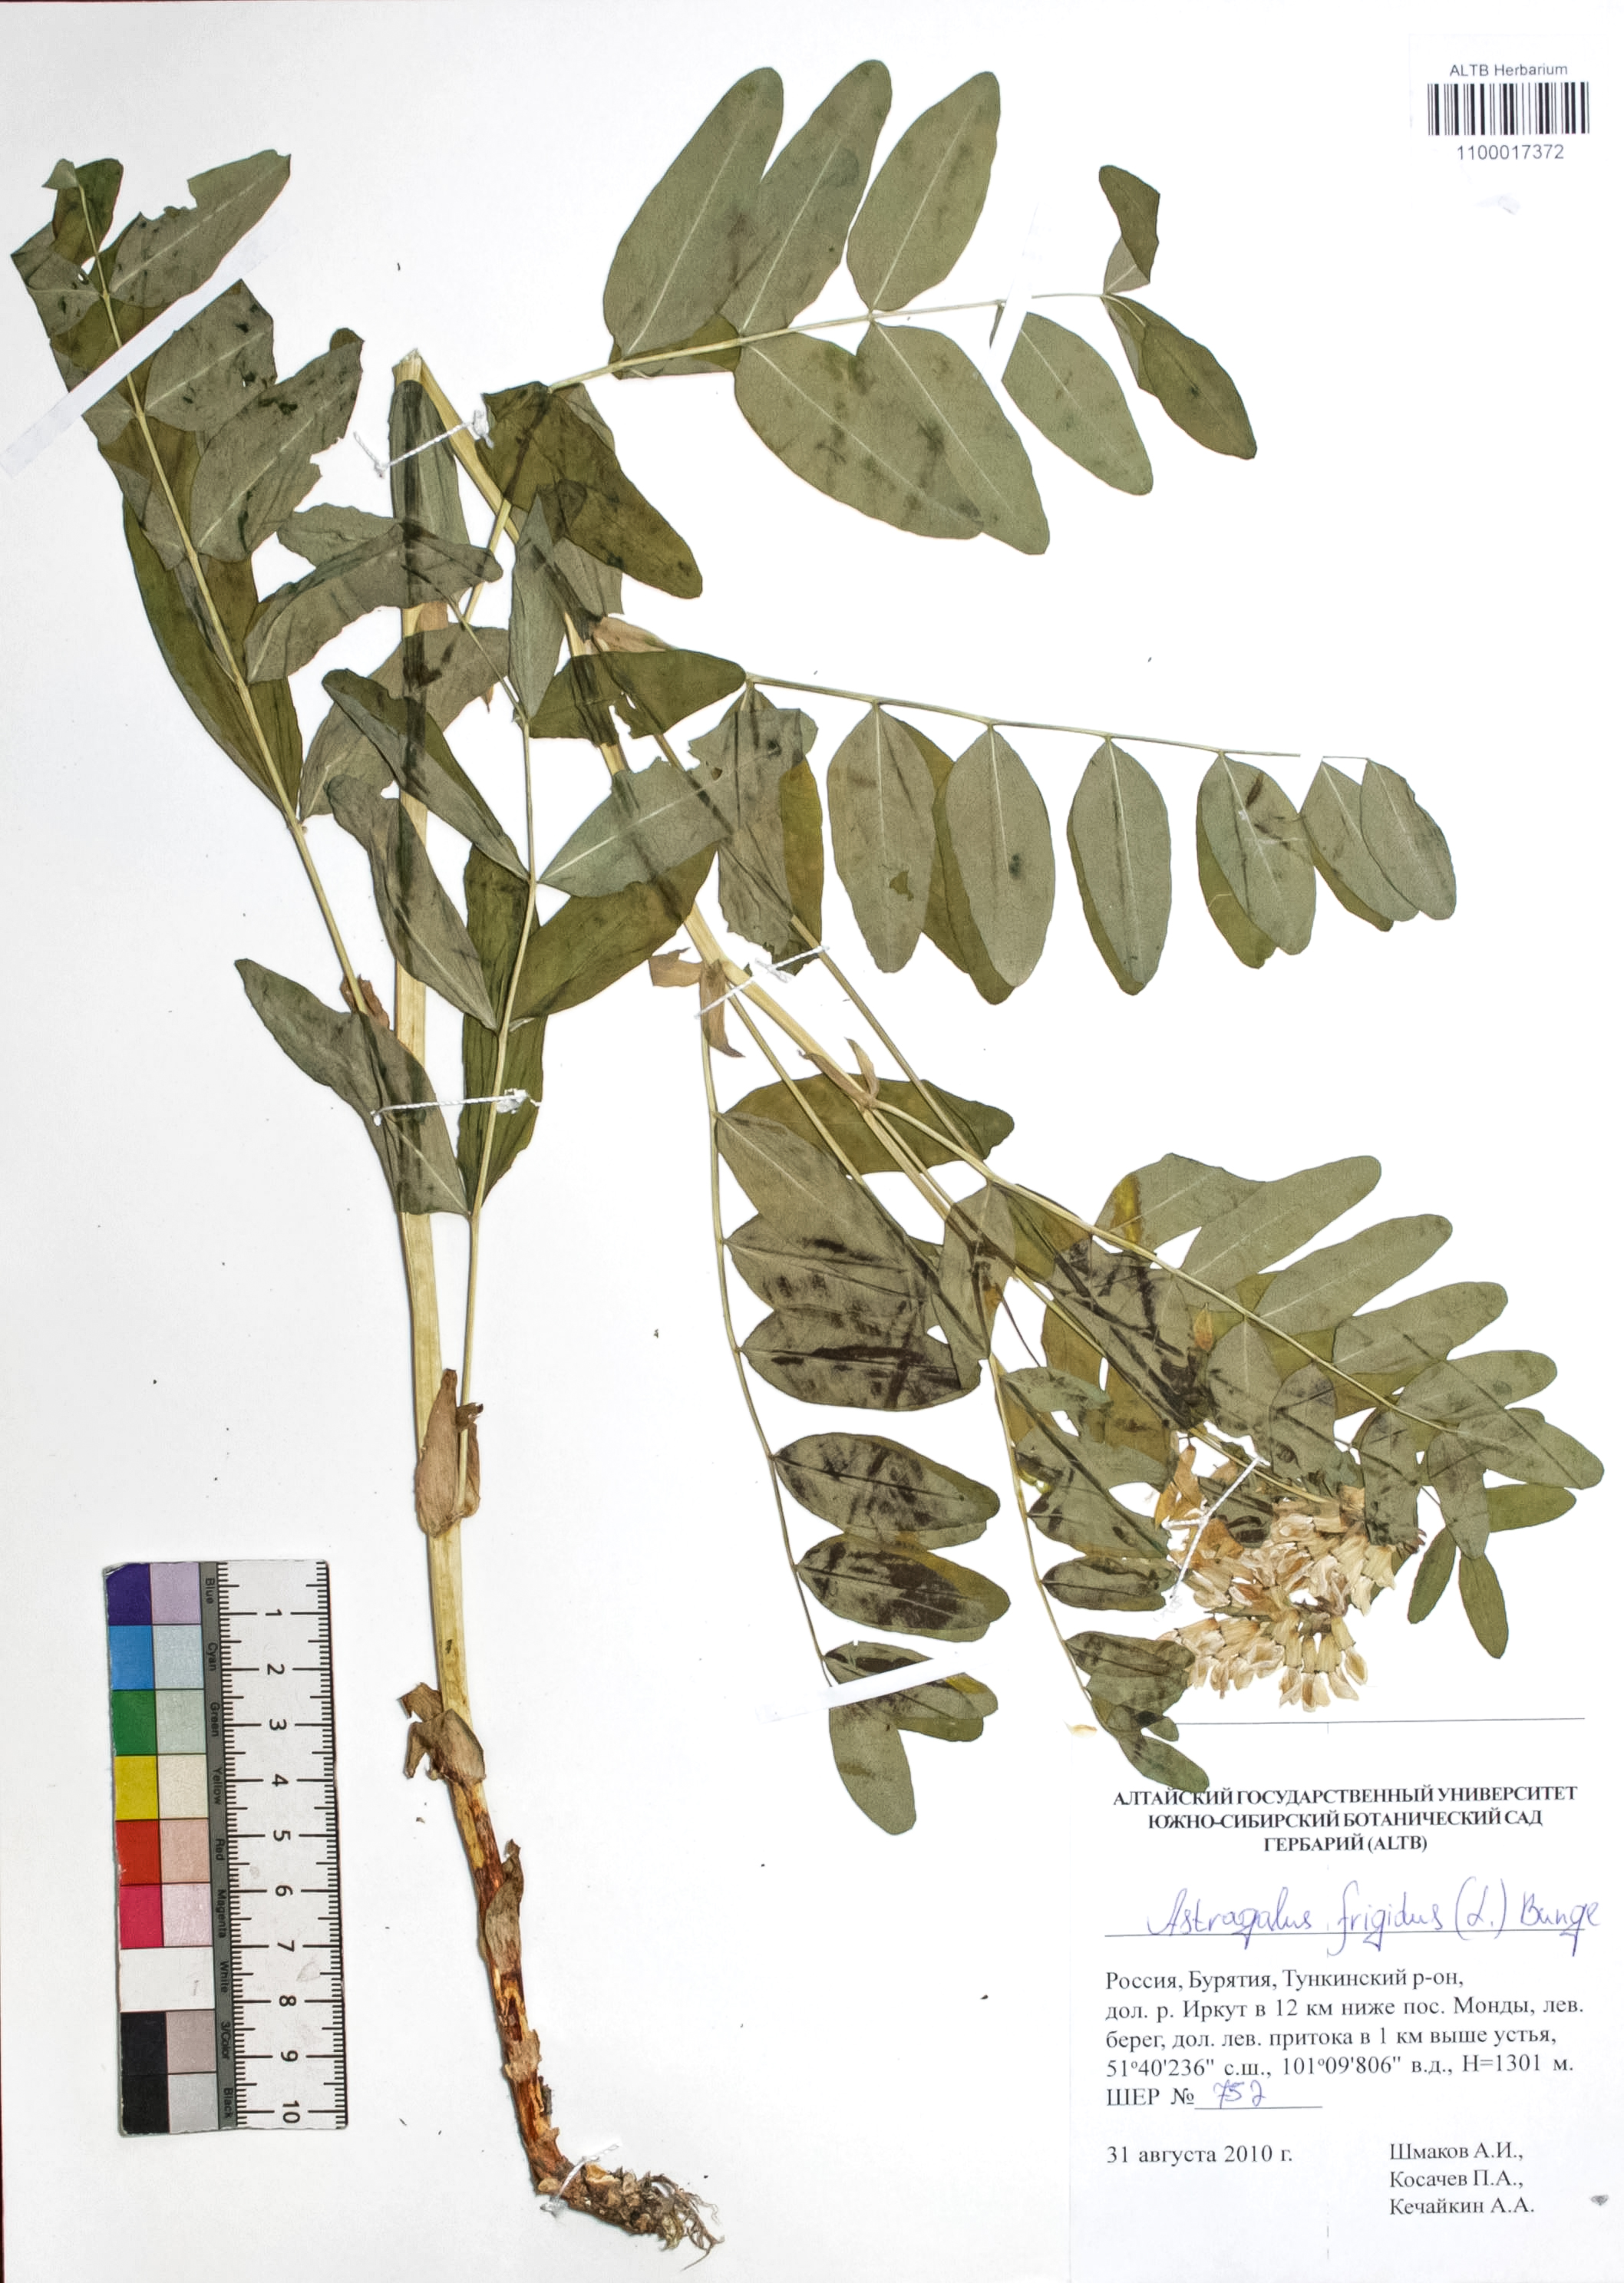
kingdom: Plantae
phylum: Tracheophyta
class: Magnoliopsida
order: Fabales
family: Fabaceae
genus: Astragalus
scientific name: Astragalus frigidus
